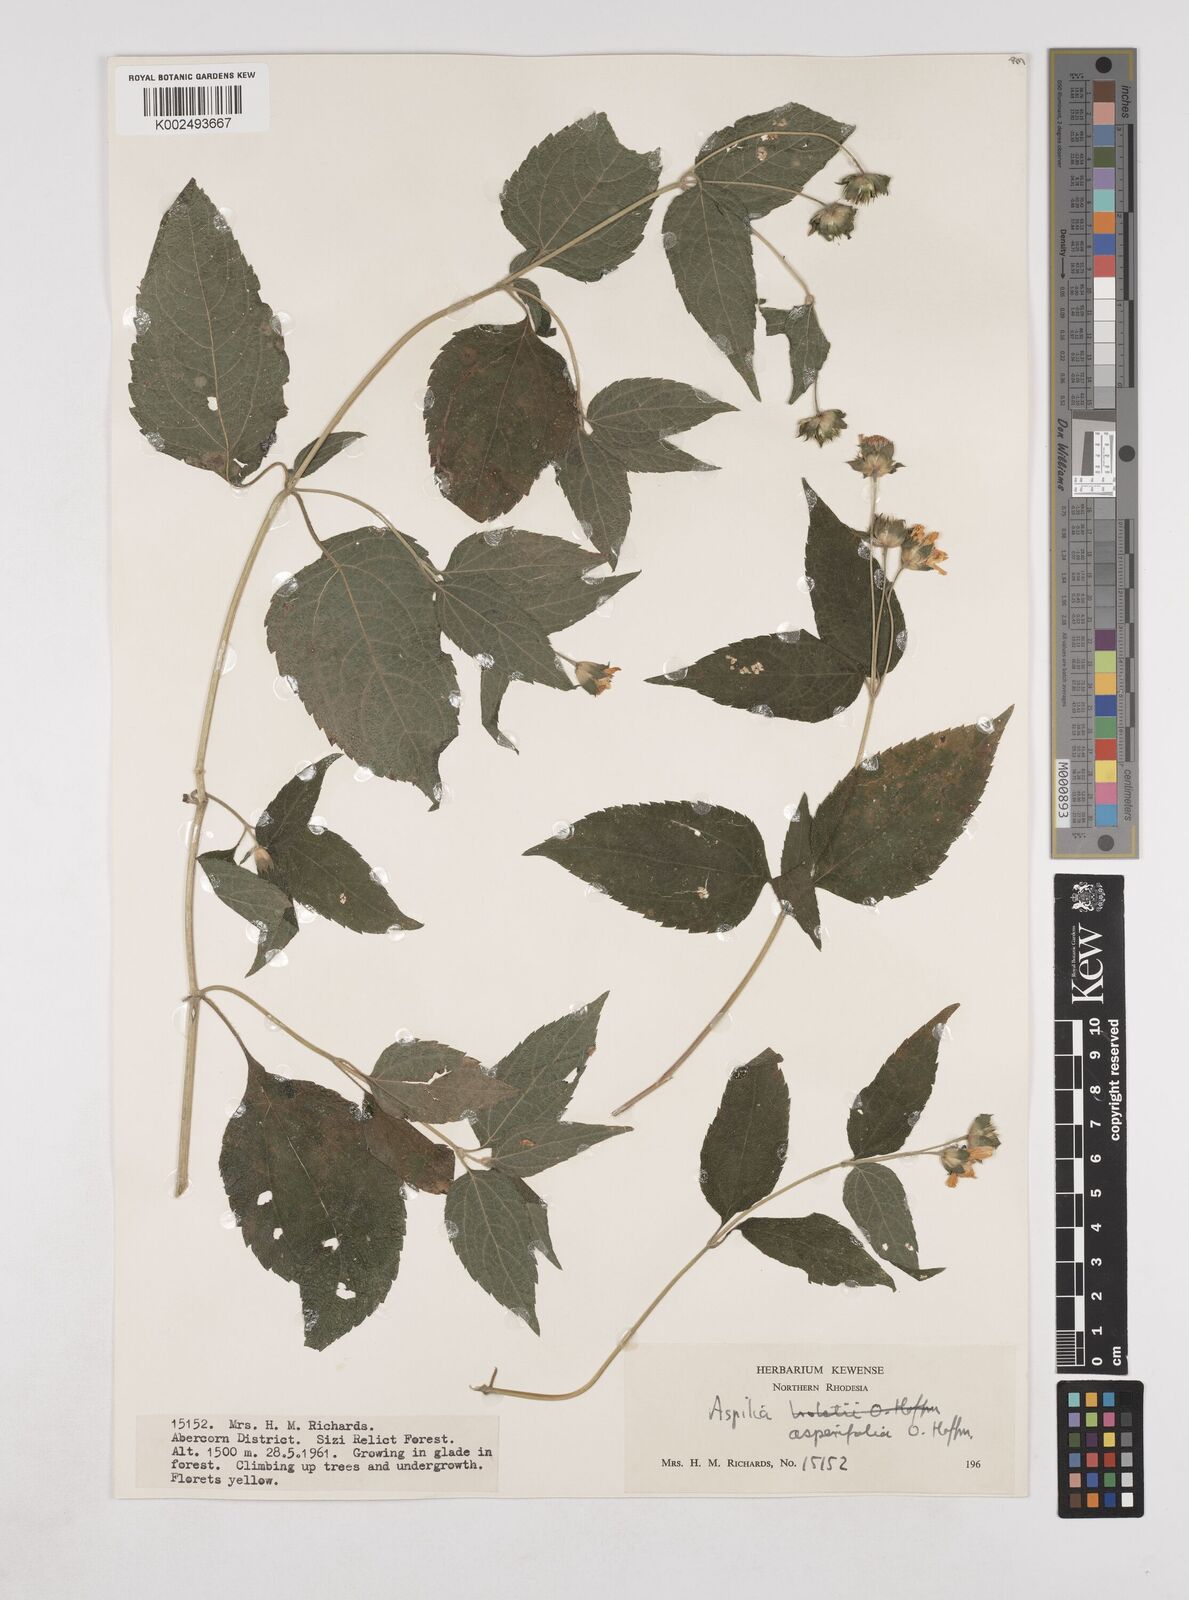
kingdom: Plantae
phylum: Tracheophyta
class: Magnoliopsida
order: Asterales
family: Asteraceae
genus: Lipotriche
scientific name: Lipotriche richardsiae
